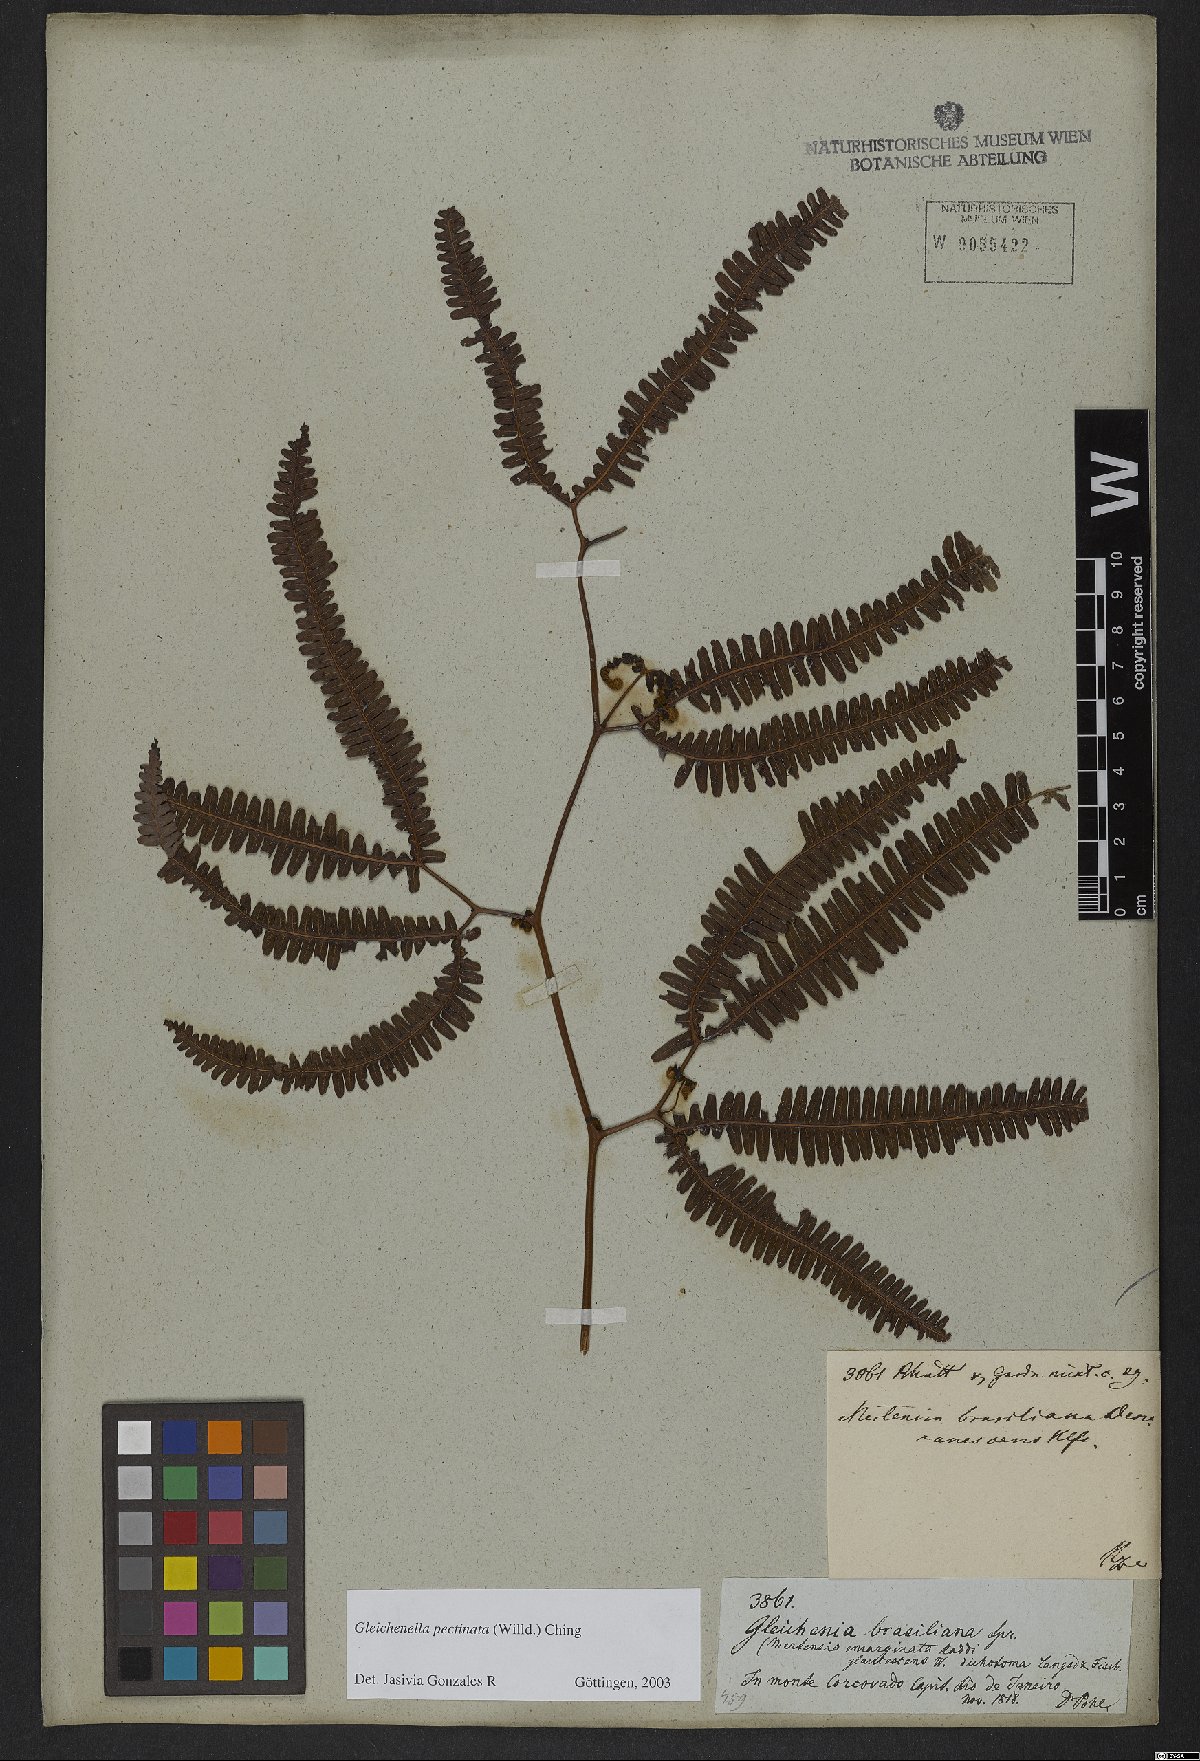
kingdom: Plantae
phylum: Tracheophyta
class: Polypodiopsida
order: Gleicheniales
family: Gleicheniaceae
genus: Gleichenella
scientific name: Gleichenella pectinata
